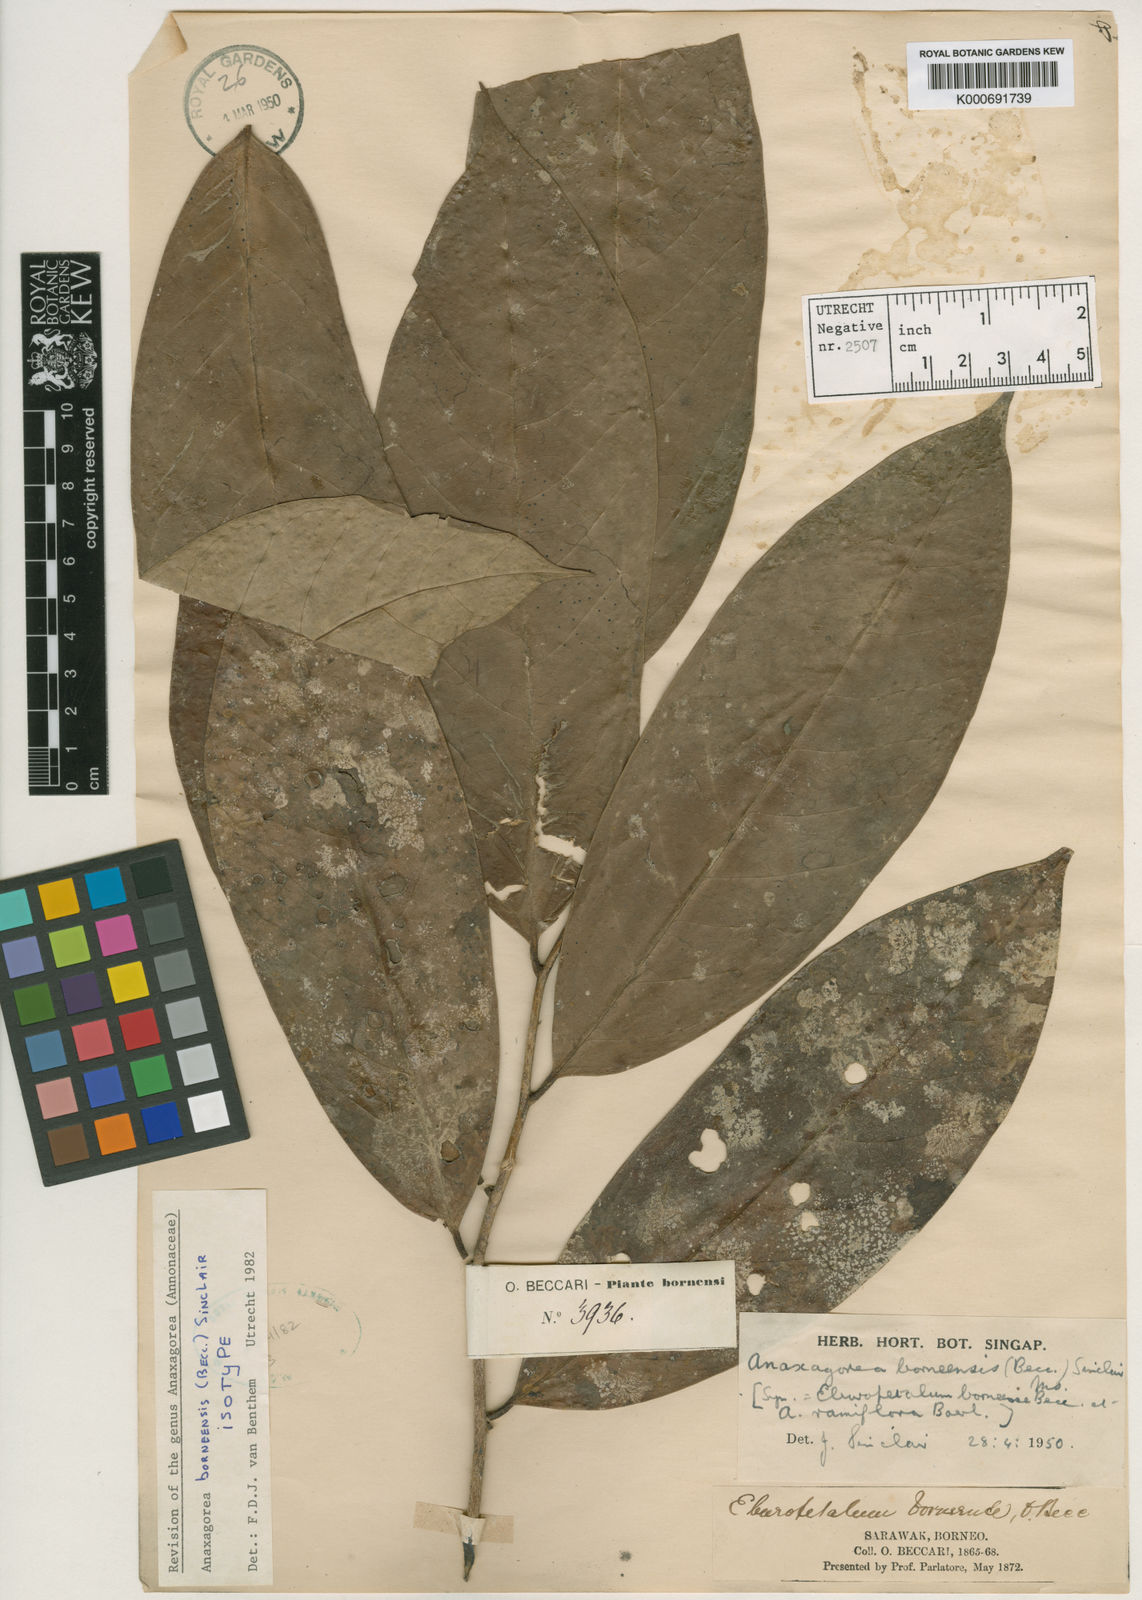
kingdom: Plantae
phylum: Tracheophyta
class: Magnoliopsida
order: Magnoliales
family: Annonaceae
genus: Anaxagorea
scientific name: Anaxagorea borneensis
